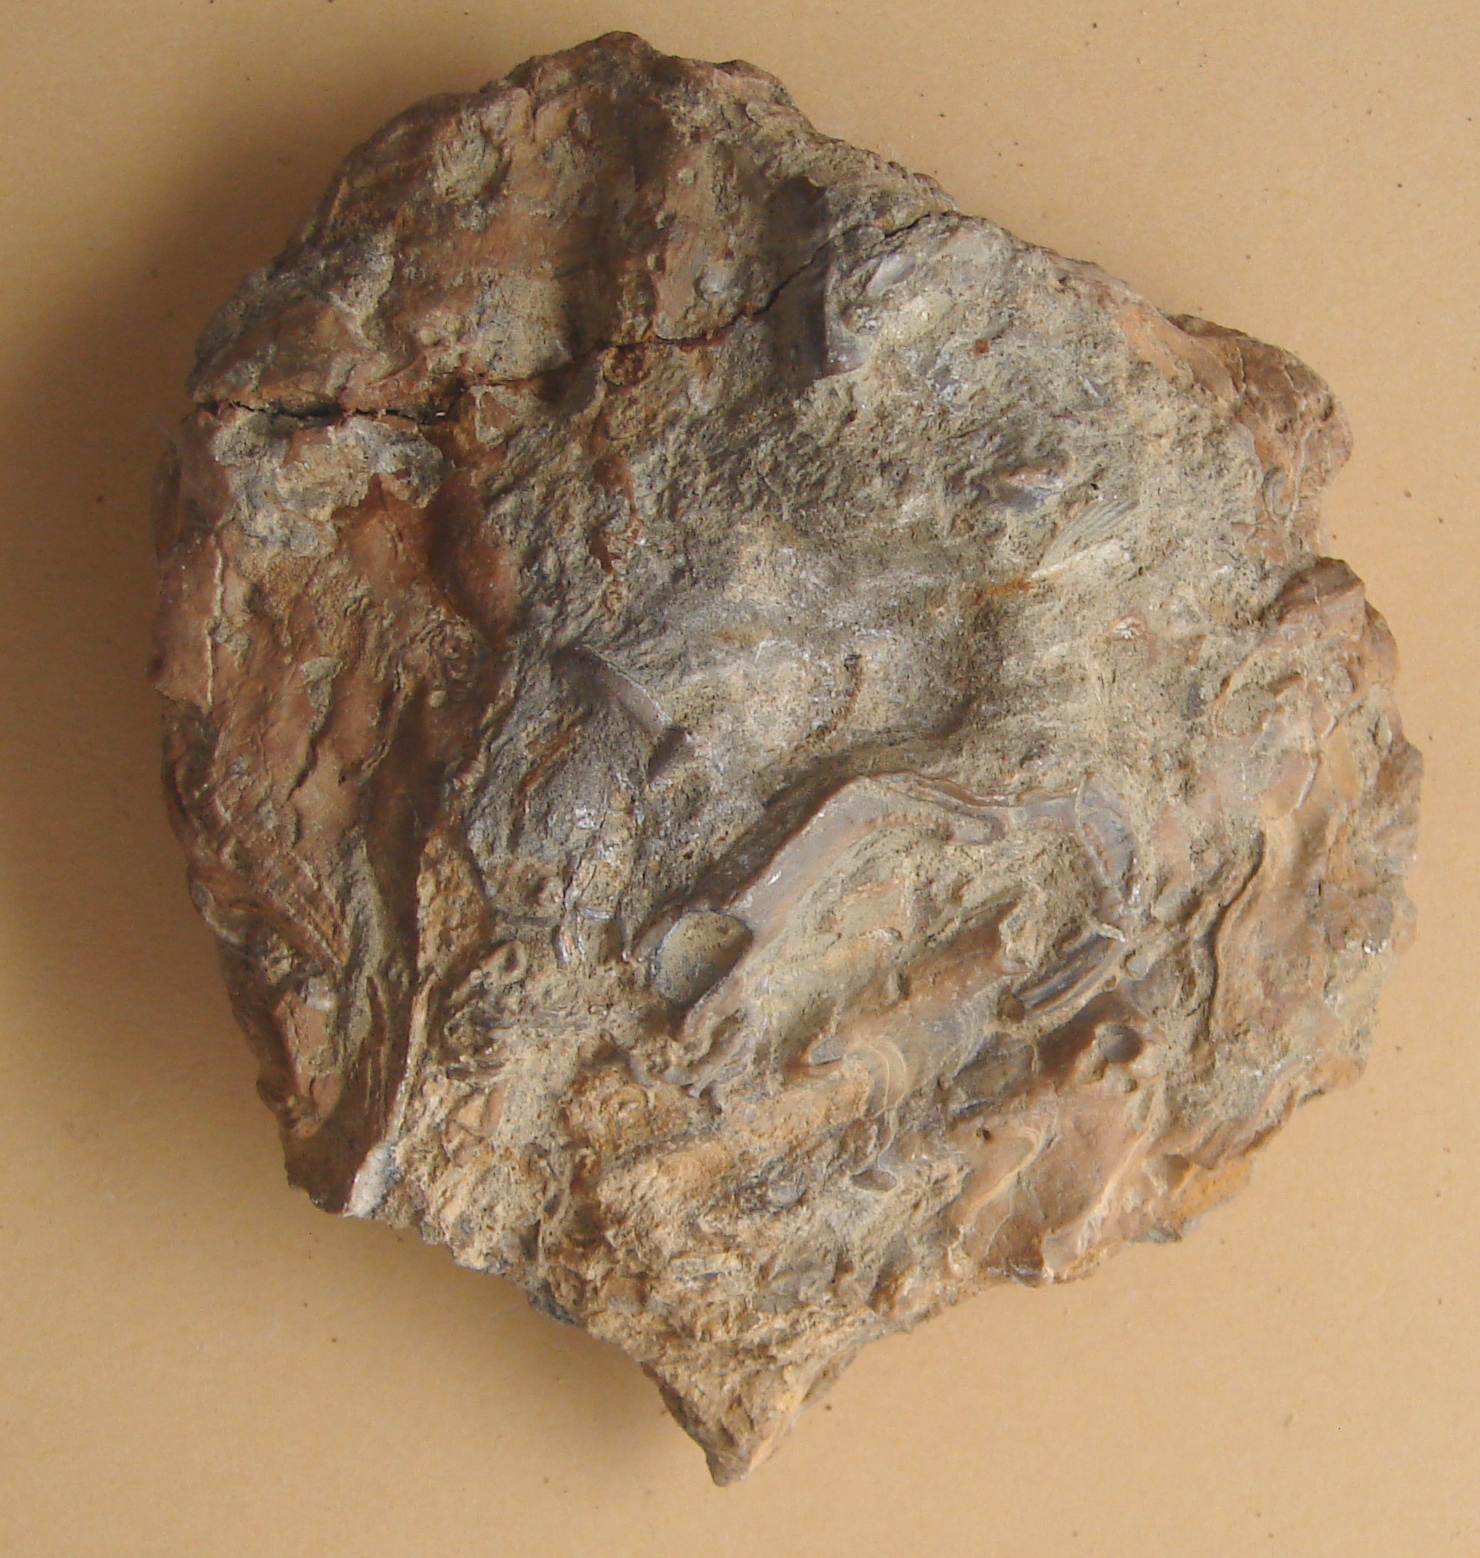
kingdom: Animalia
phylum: Mollusca
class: Bivalvia
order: Ostreida
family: Ostreidae
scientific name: Ostreidae
